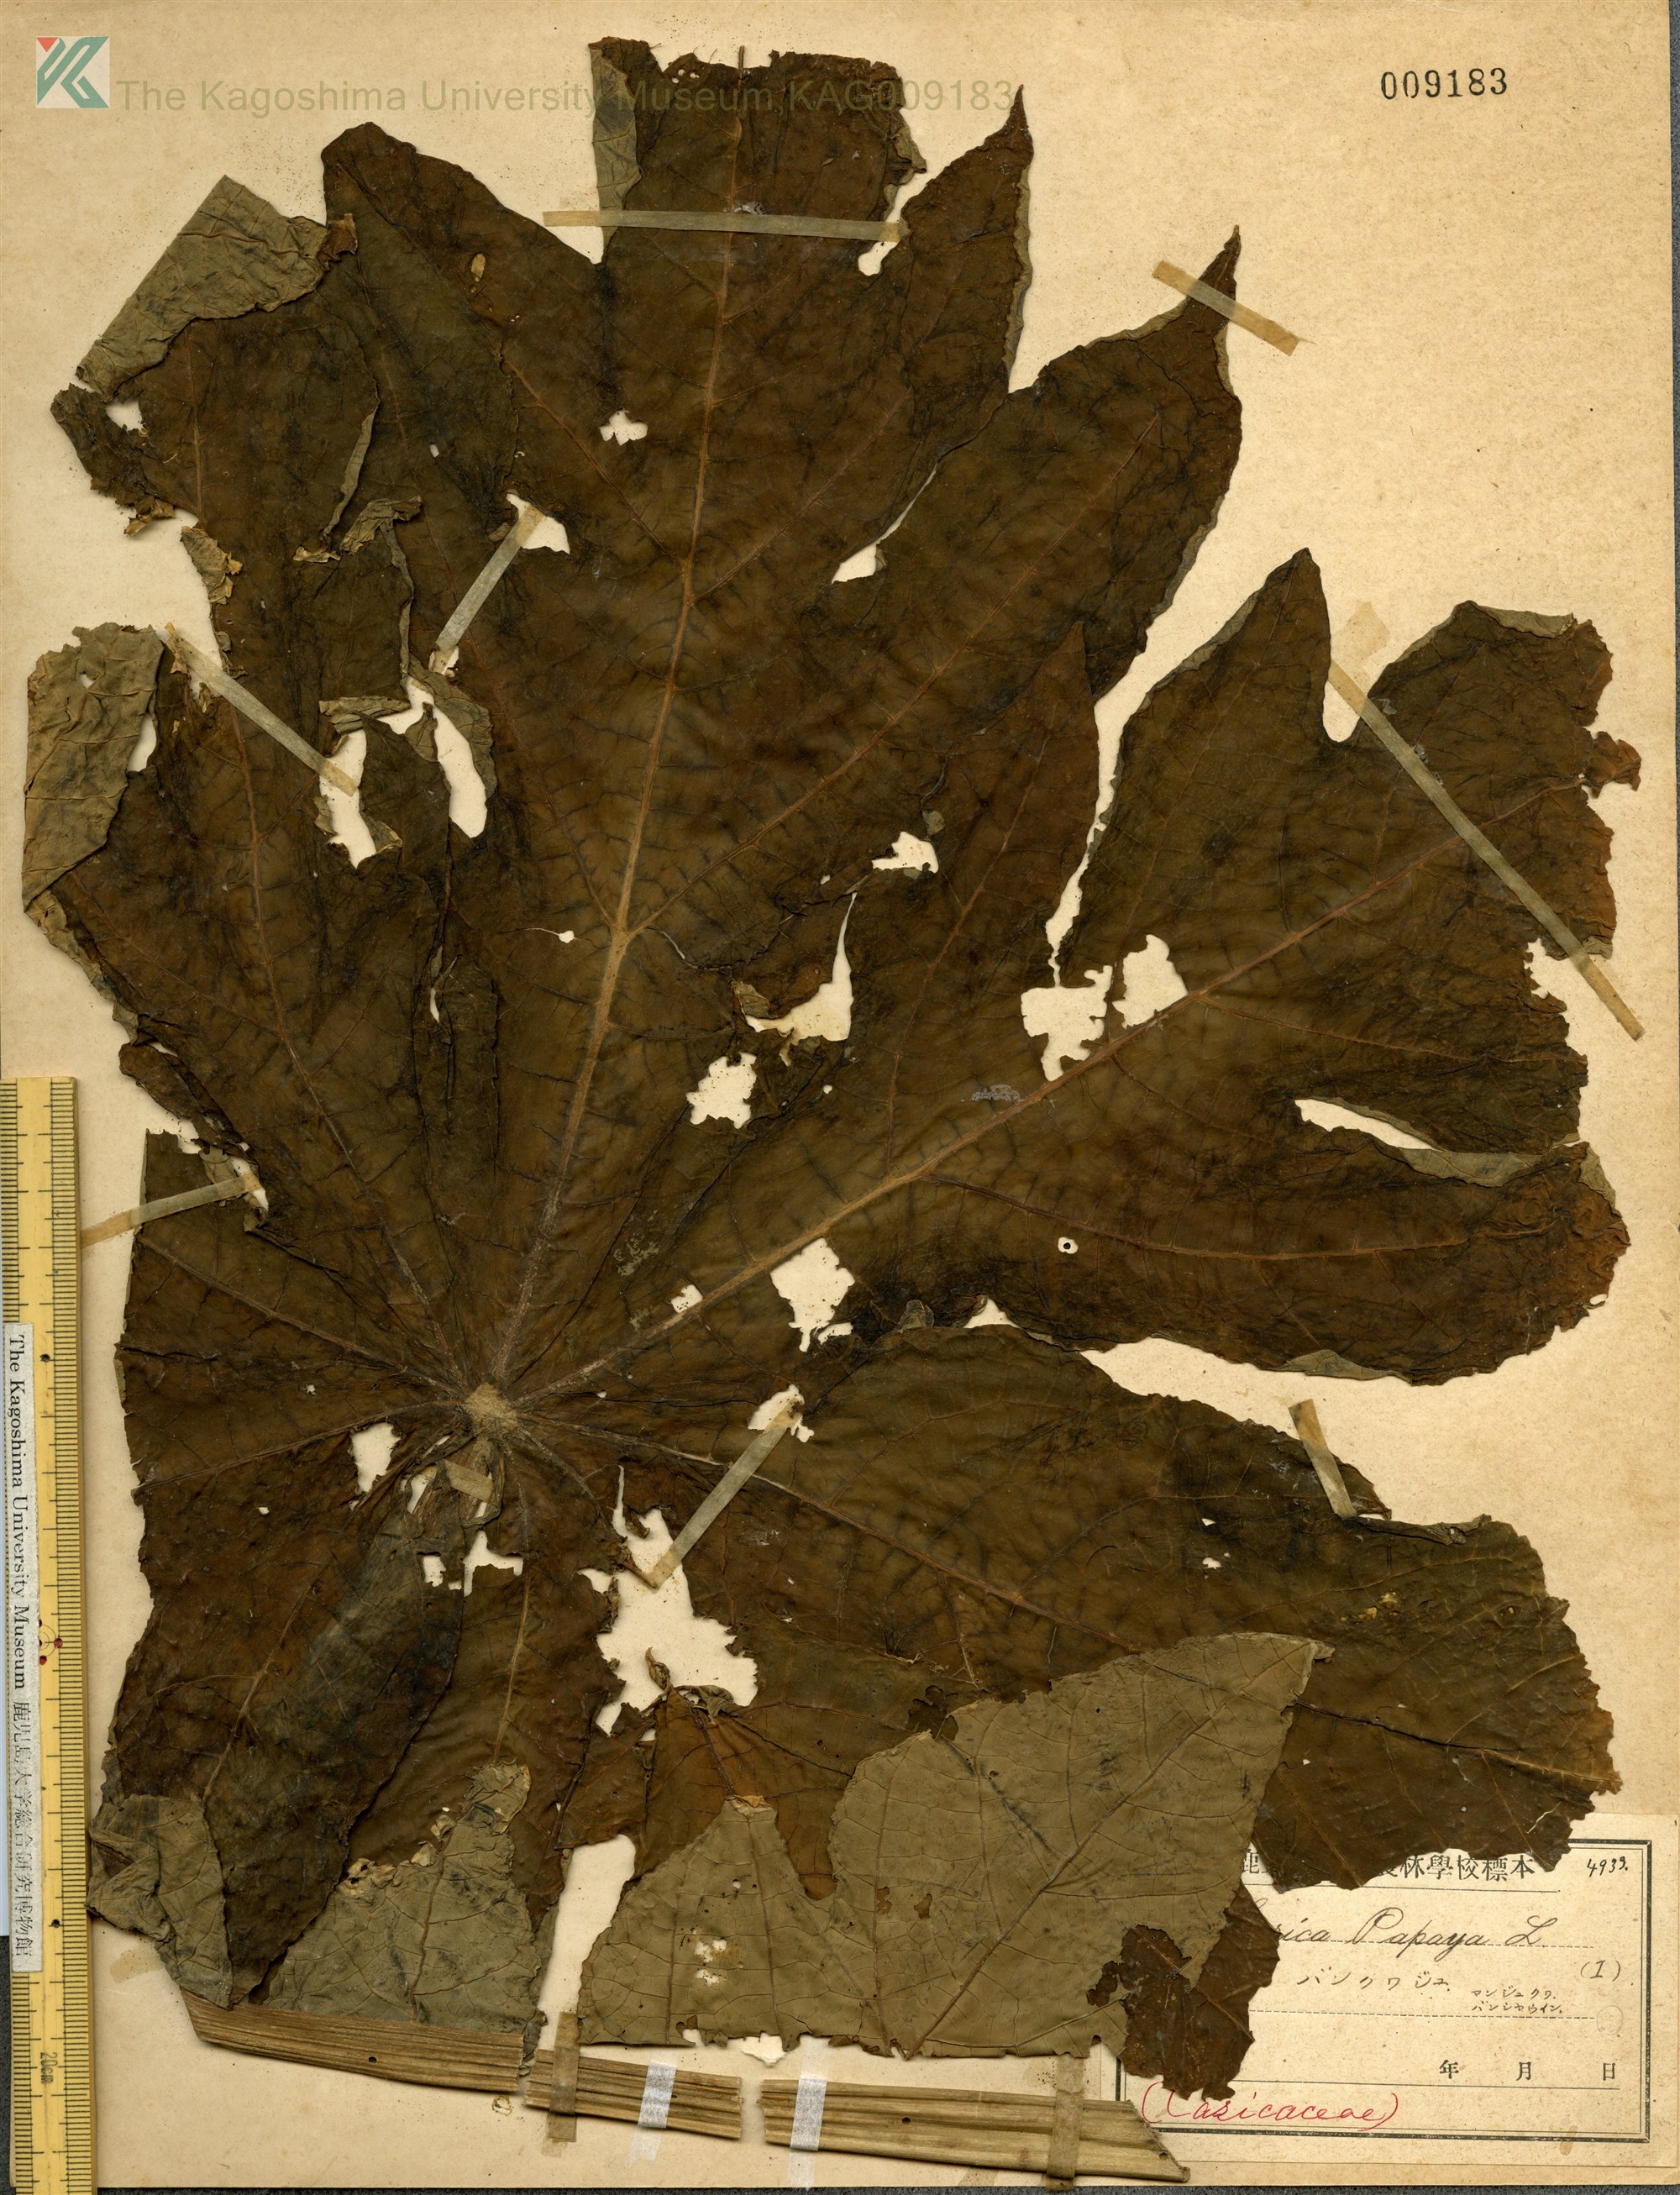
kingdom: Plantae
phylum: Tracheophyta
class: Magnoliopsida
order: Brassicales
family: Caricaceae
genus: Carica
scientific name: Carica papaya
